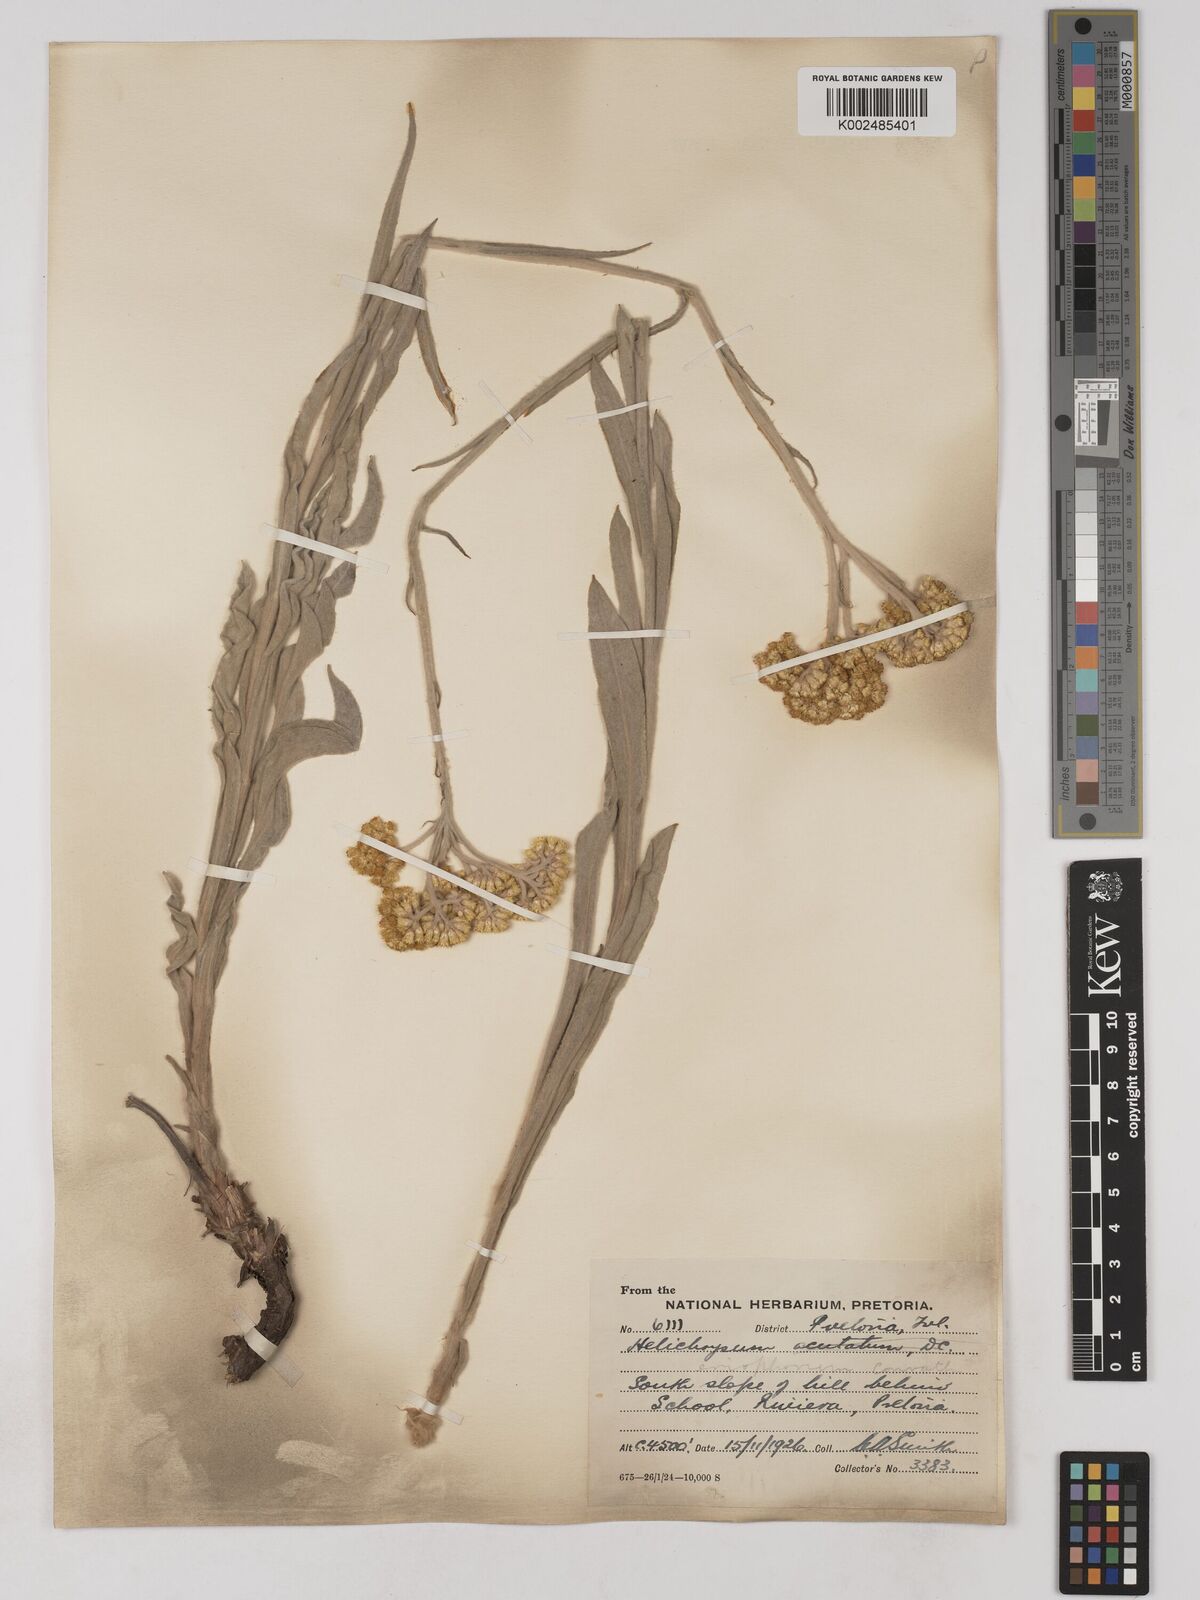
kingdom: Plantae
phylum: Tracheophyta
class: Magnoliopsida
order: Asterales
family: Asteraceae
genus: Helichrysum
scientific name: Helichrysum acutatum
